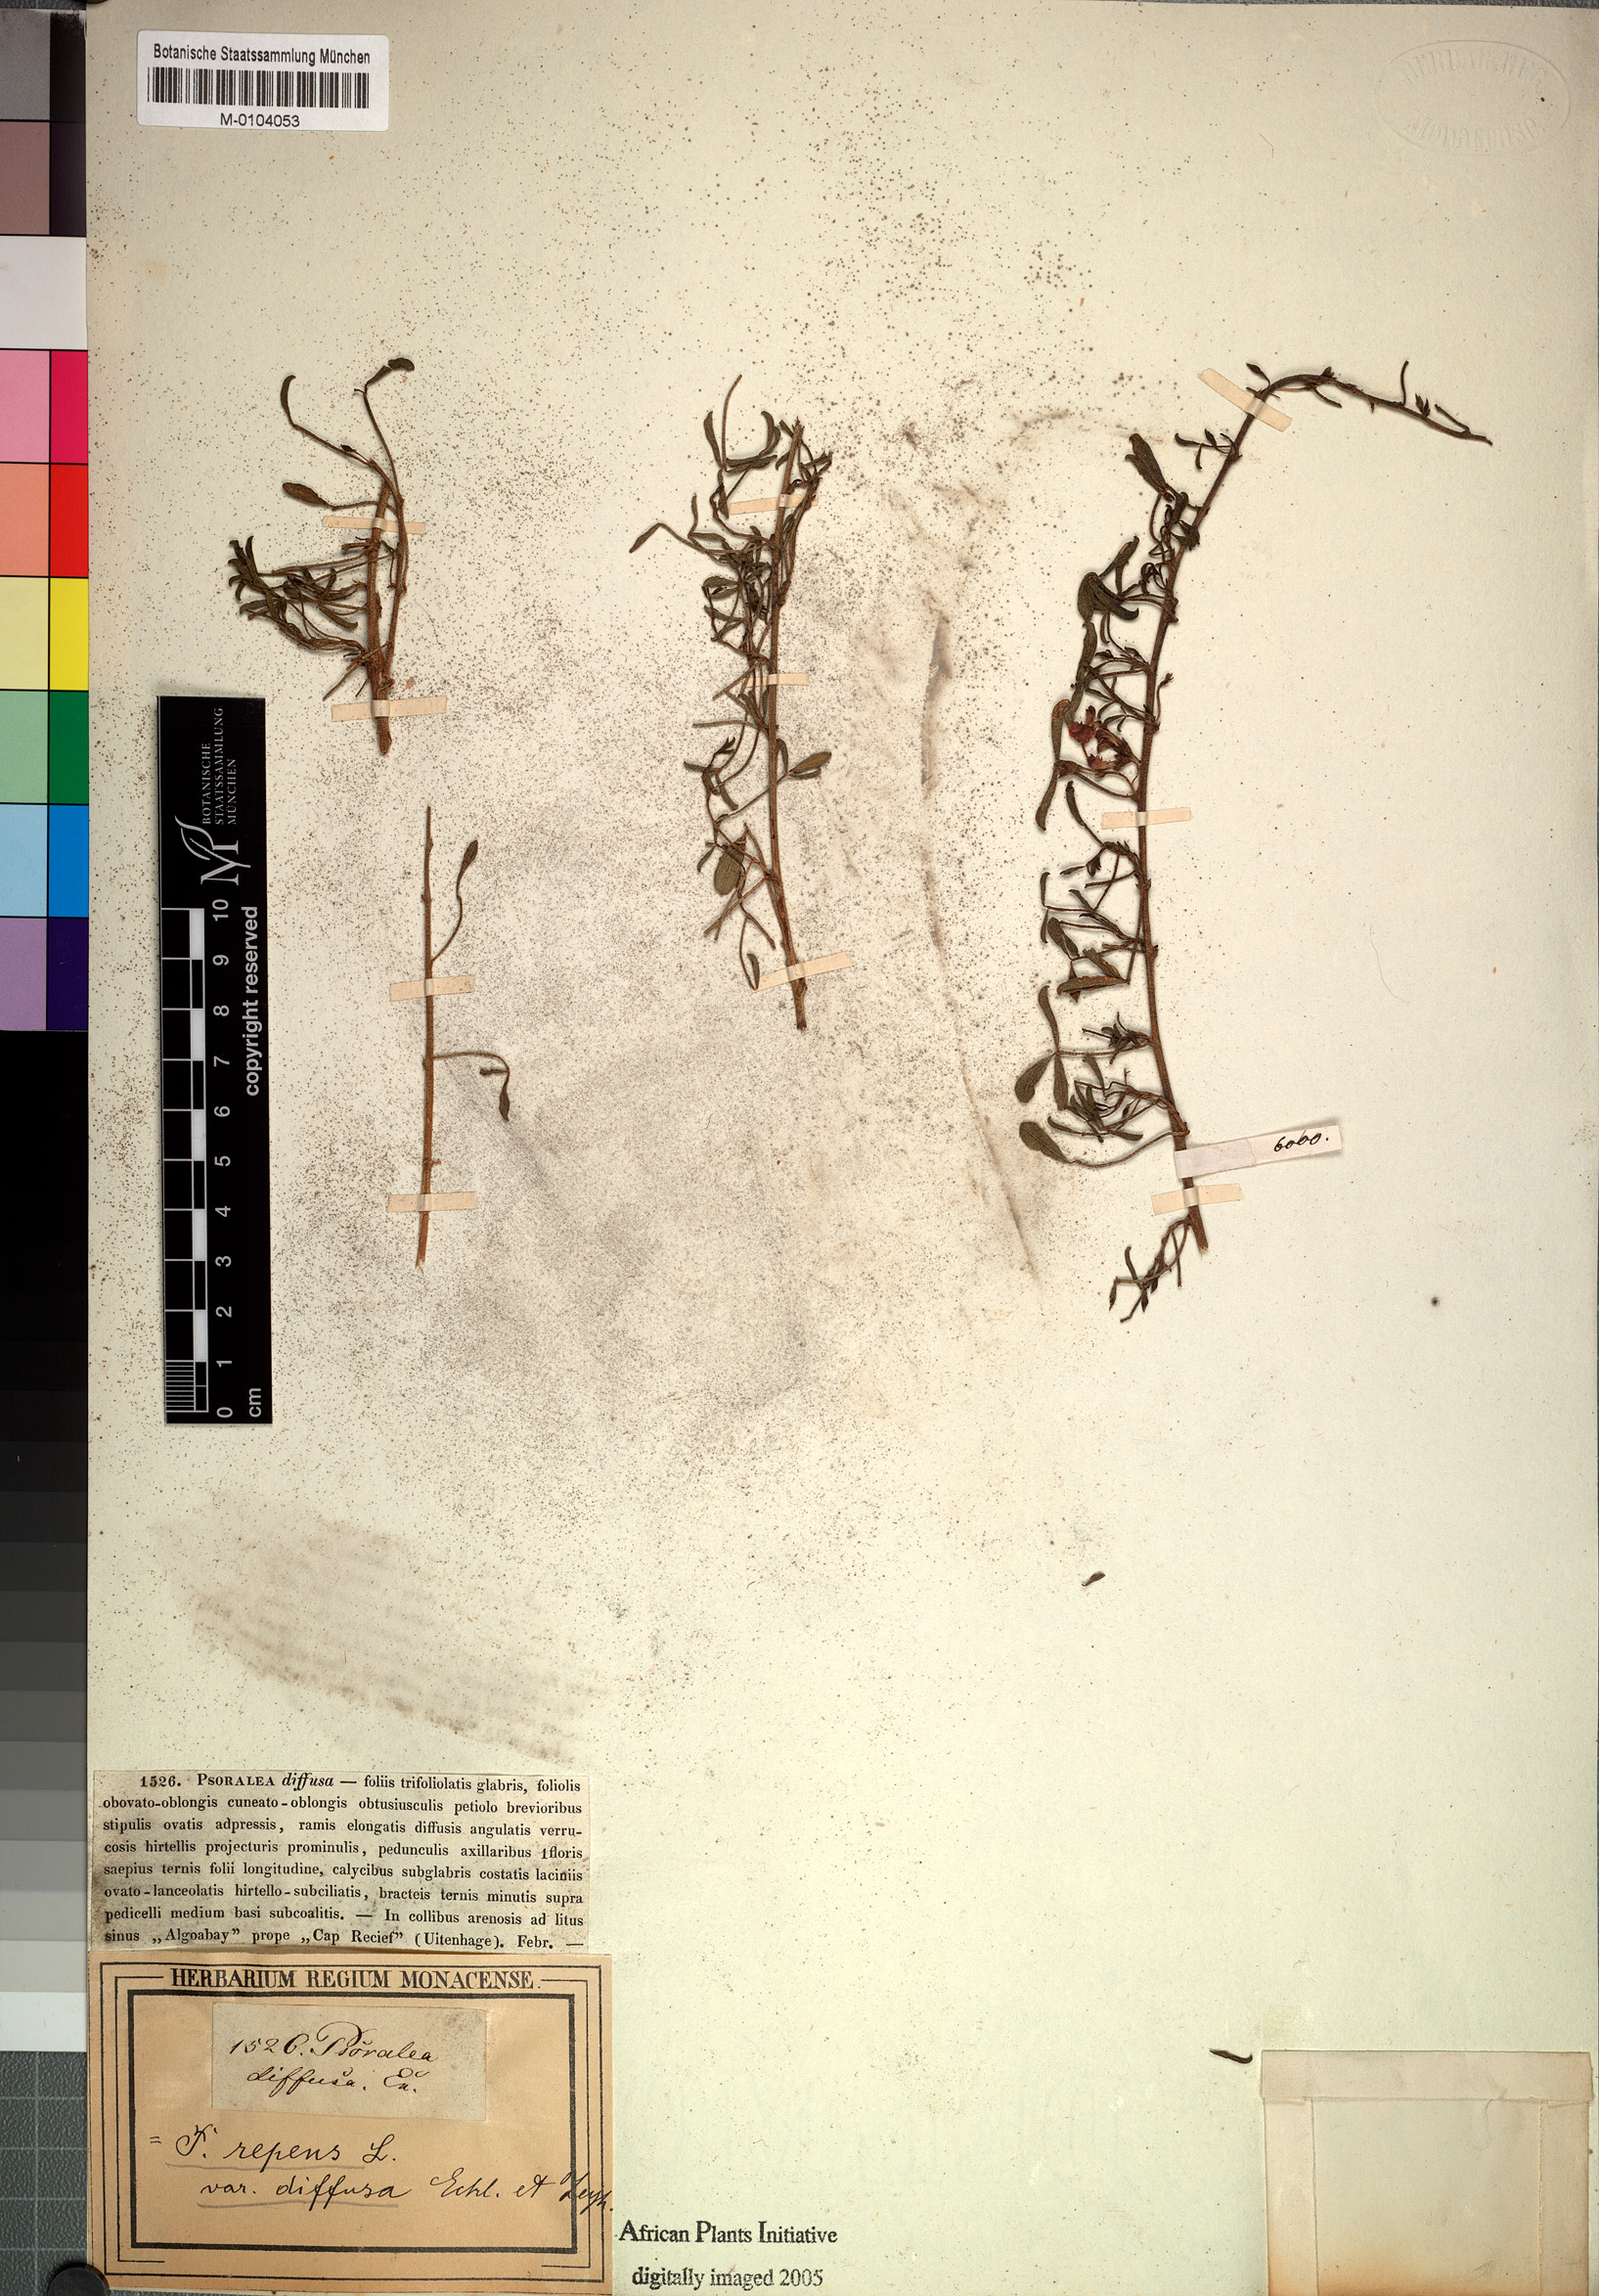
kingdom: Plantae
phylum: Tracheophyta
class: Magnoliopsida
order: Fabales
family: Fabaceae
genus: Psoralea
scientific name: Psoralea repens
